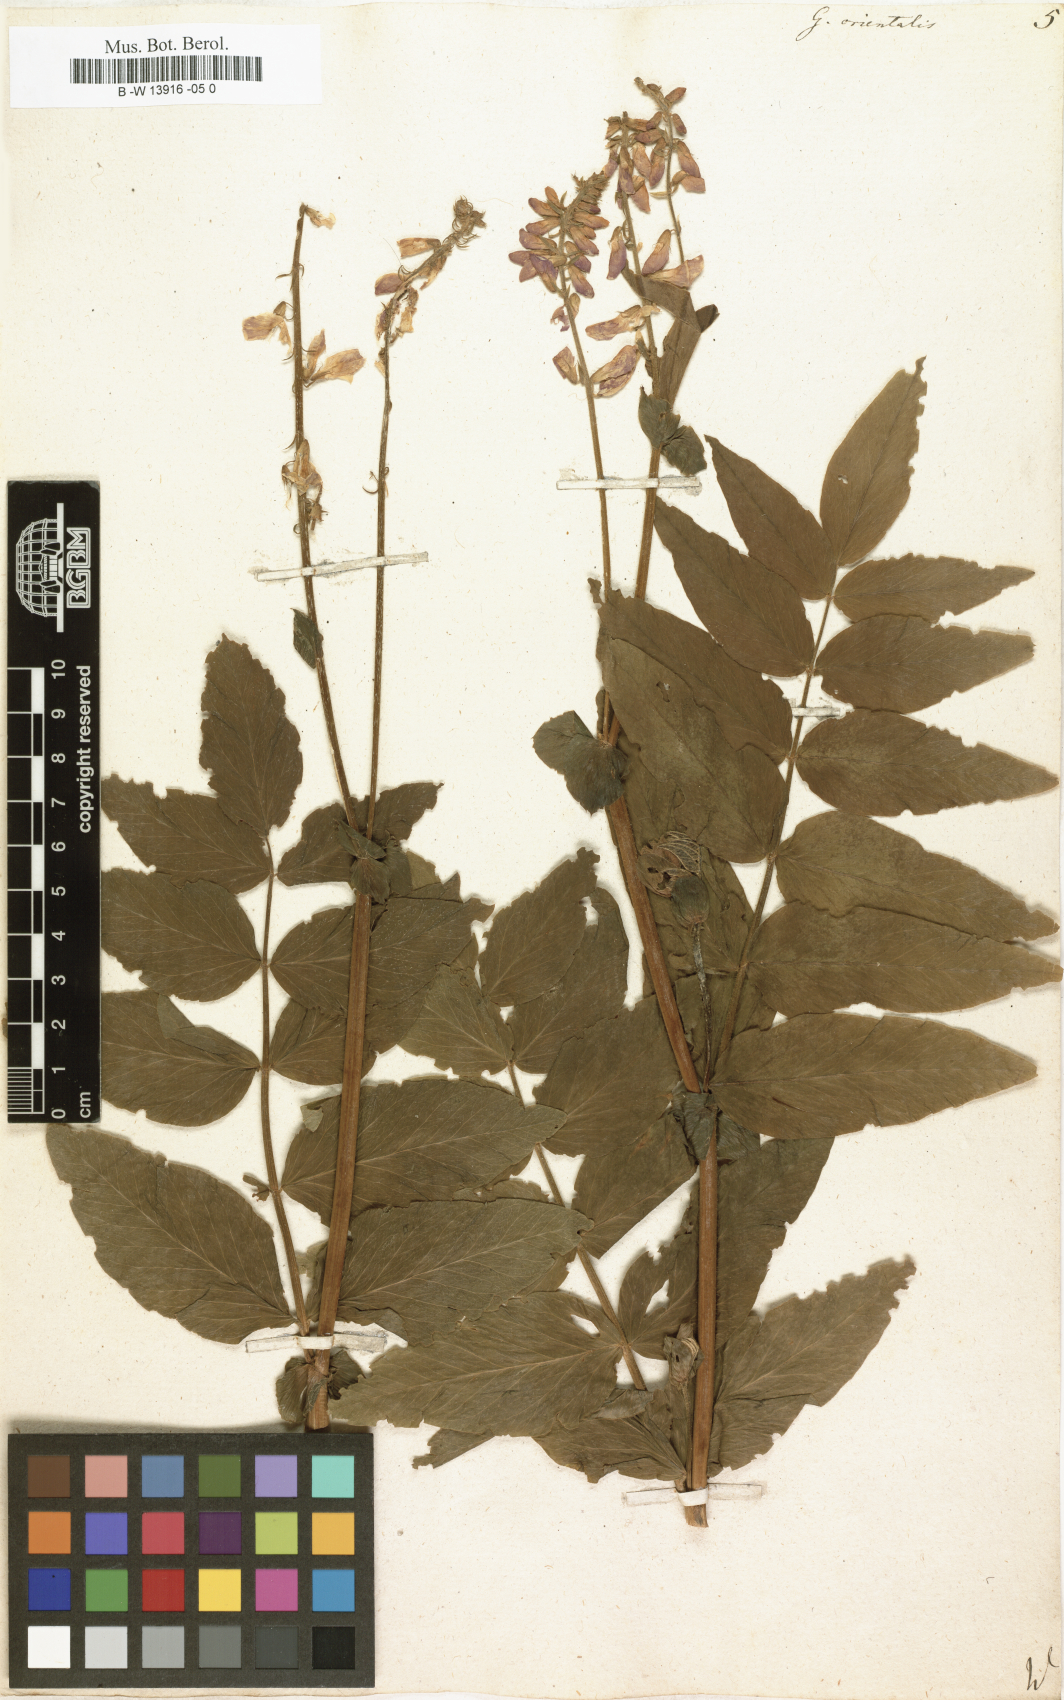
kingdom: Plantae
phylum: Tracheophyta
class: Magnoliopsida
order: Fabales
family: Fabaceae
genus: Galega
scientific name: Galega orientalis
